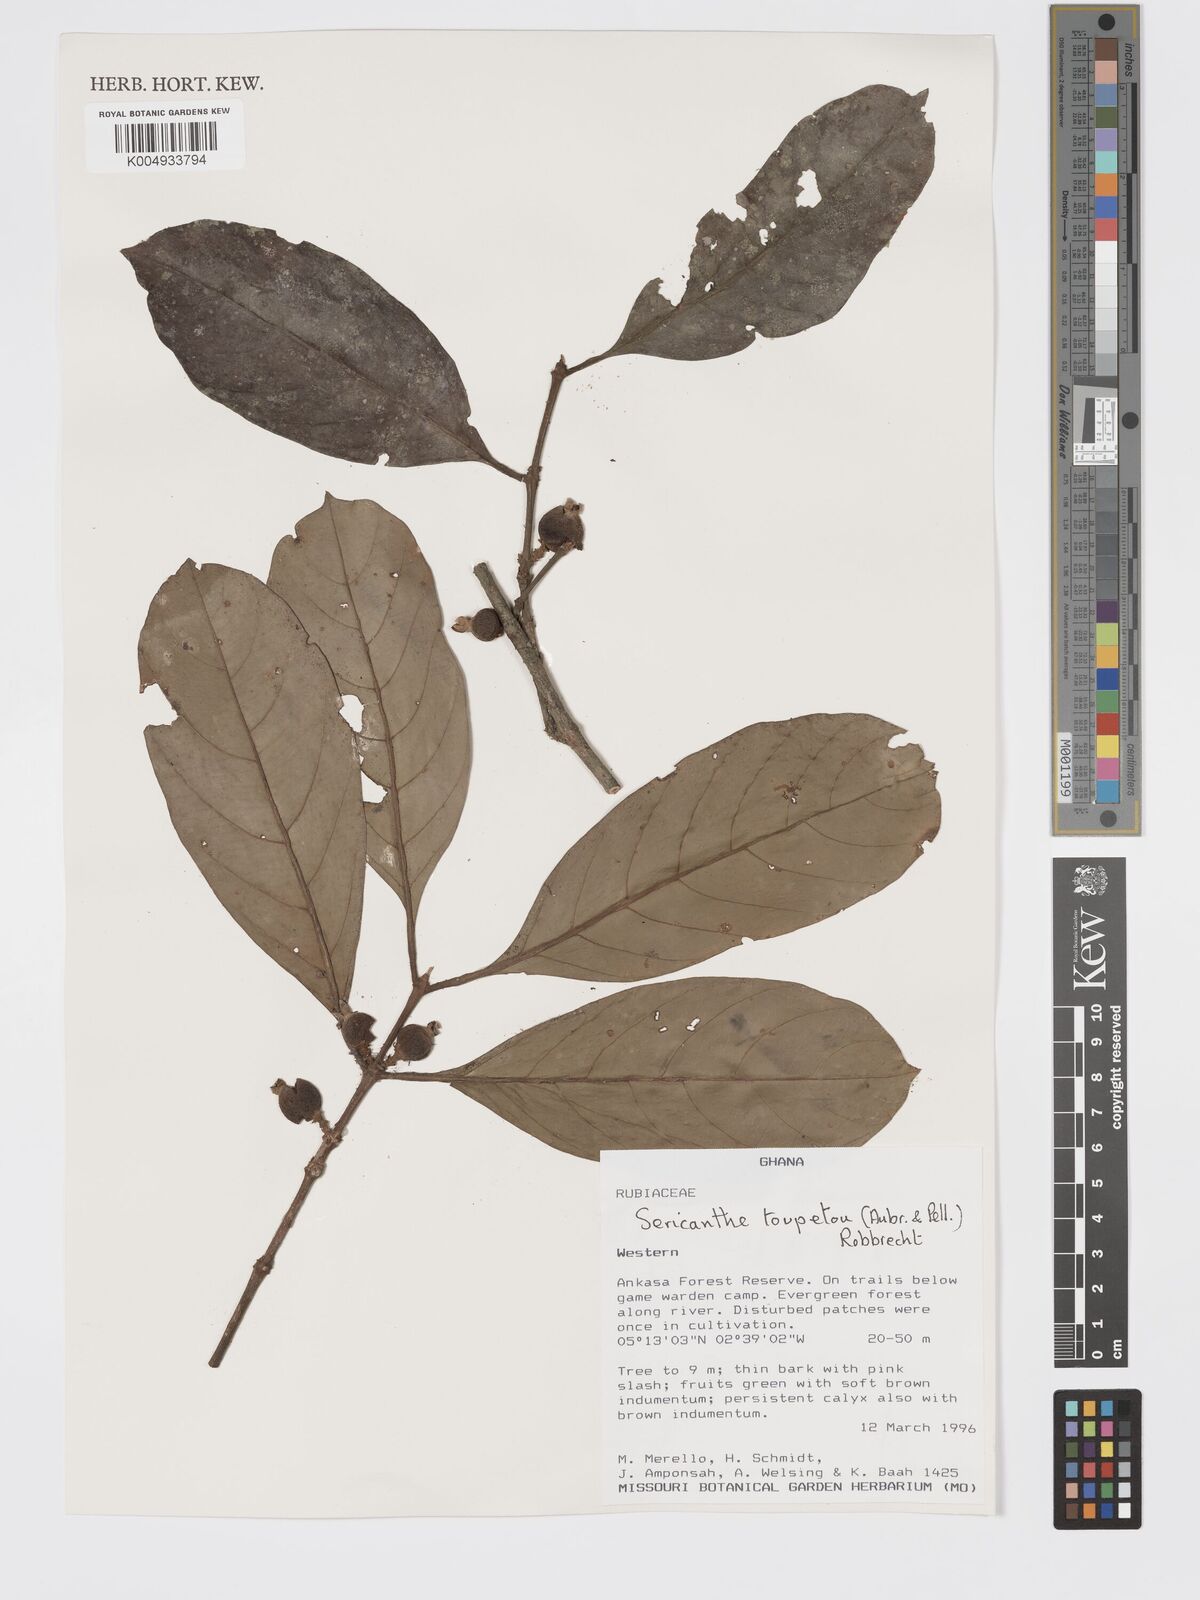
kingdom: Plantae
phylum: Tracheophyta
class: Magnoliopsida
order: Gentianales
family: Rubiaceae
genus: Sericanthe
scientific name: Sericanthe toupetou
